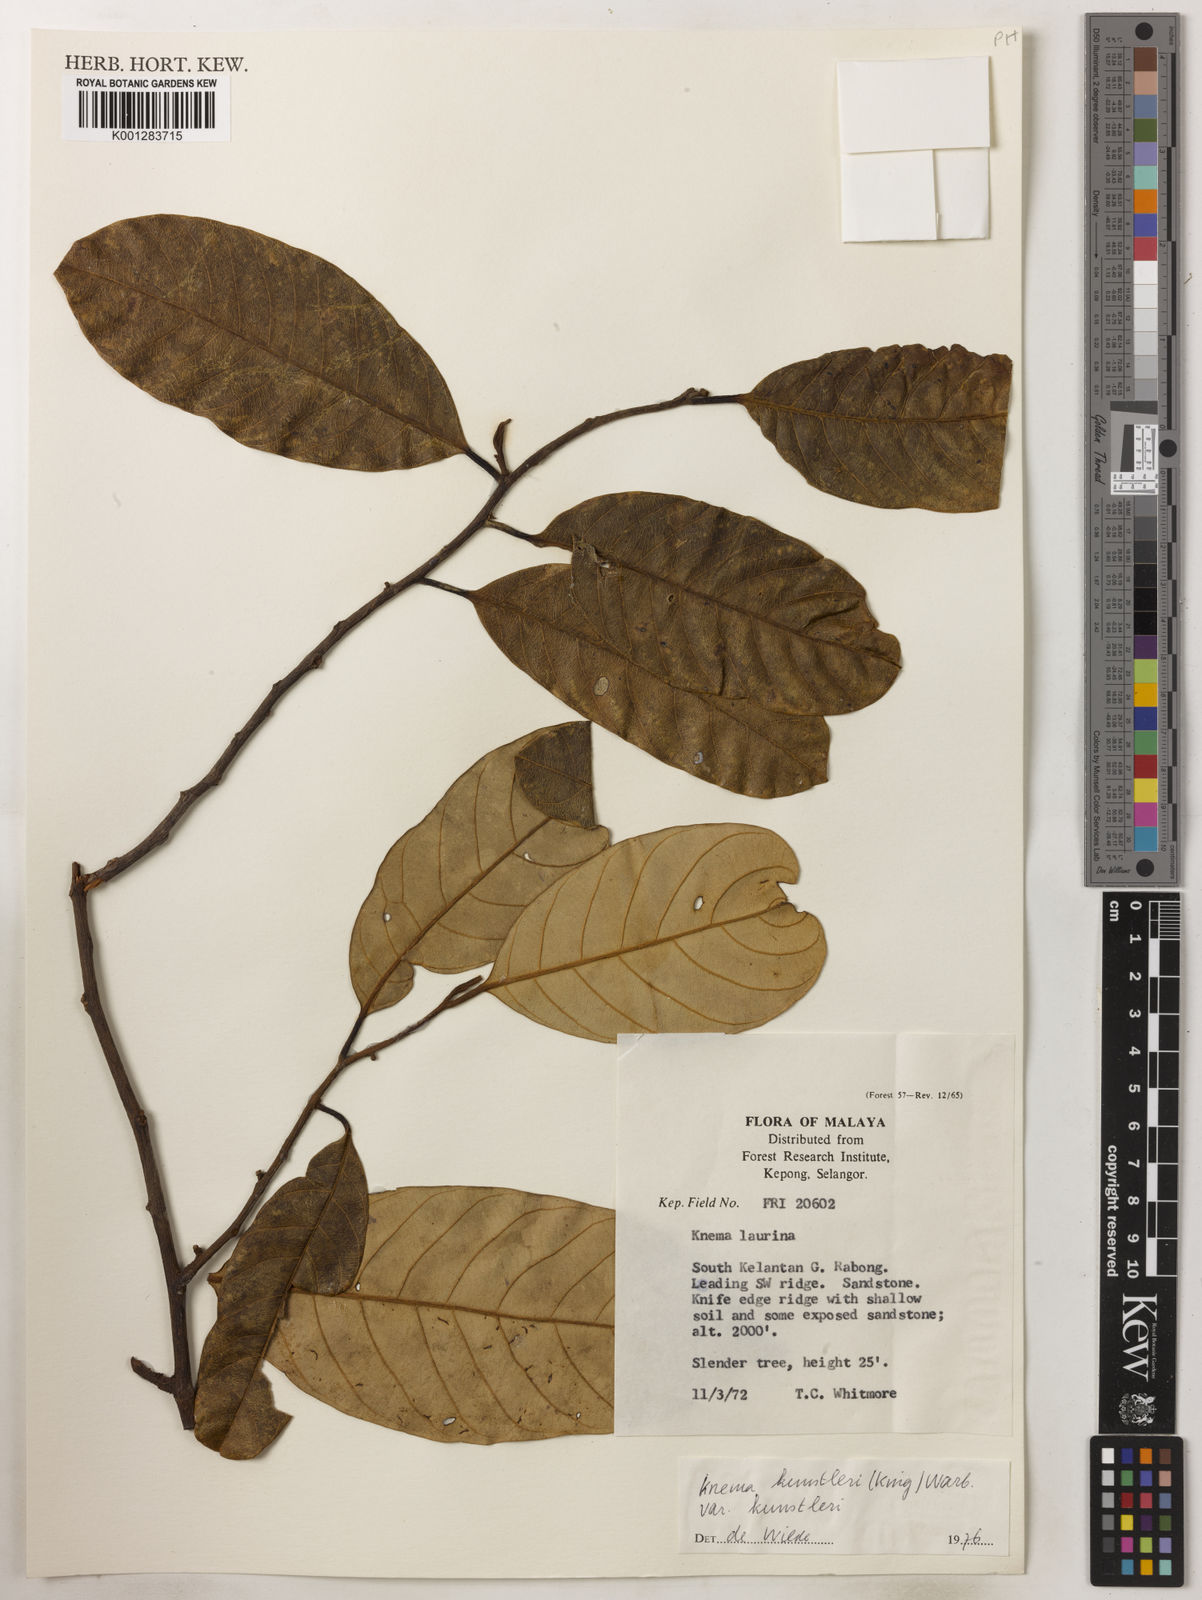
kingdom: Plantae
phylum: Tracheophyta
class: Magnoliopsida
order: Magnoliales
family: Myristicaceae
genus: Knema
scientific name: Knema kunstleri
